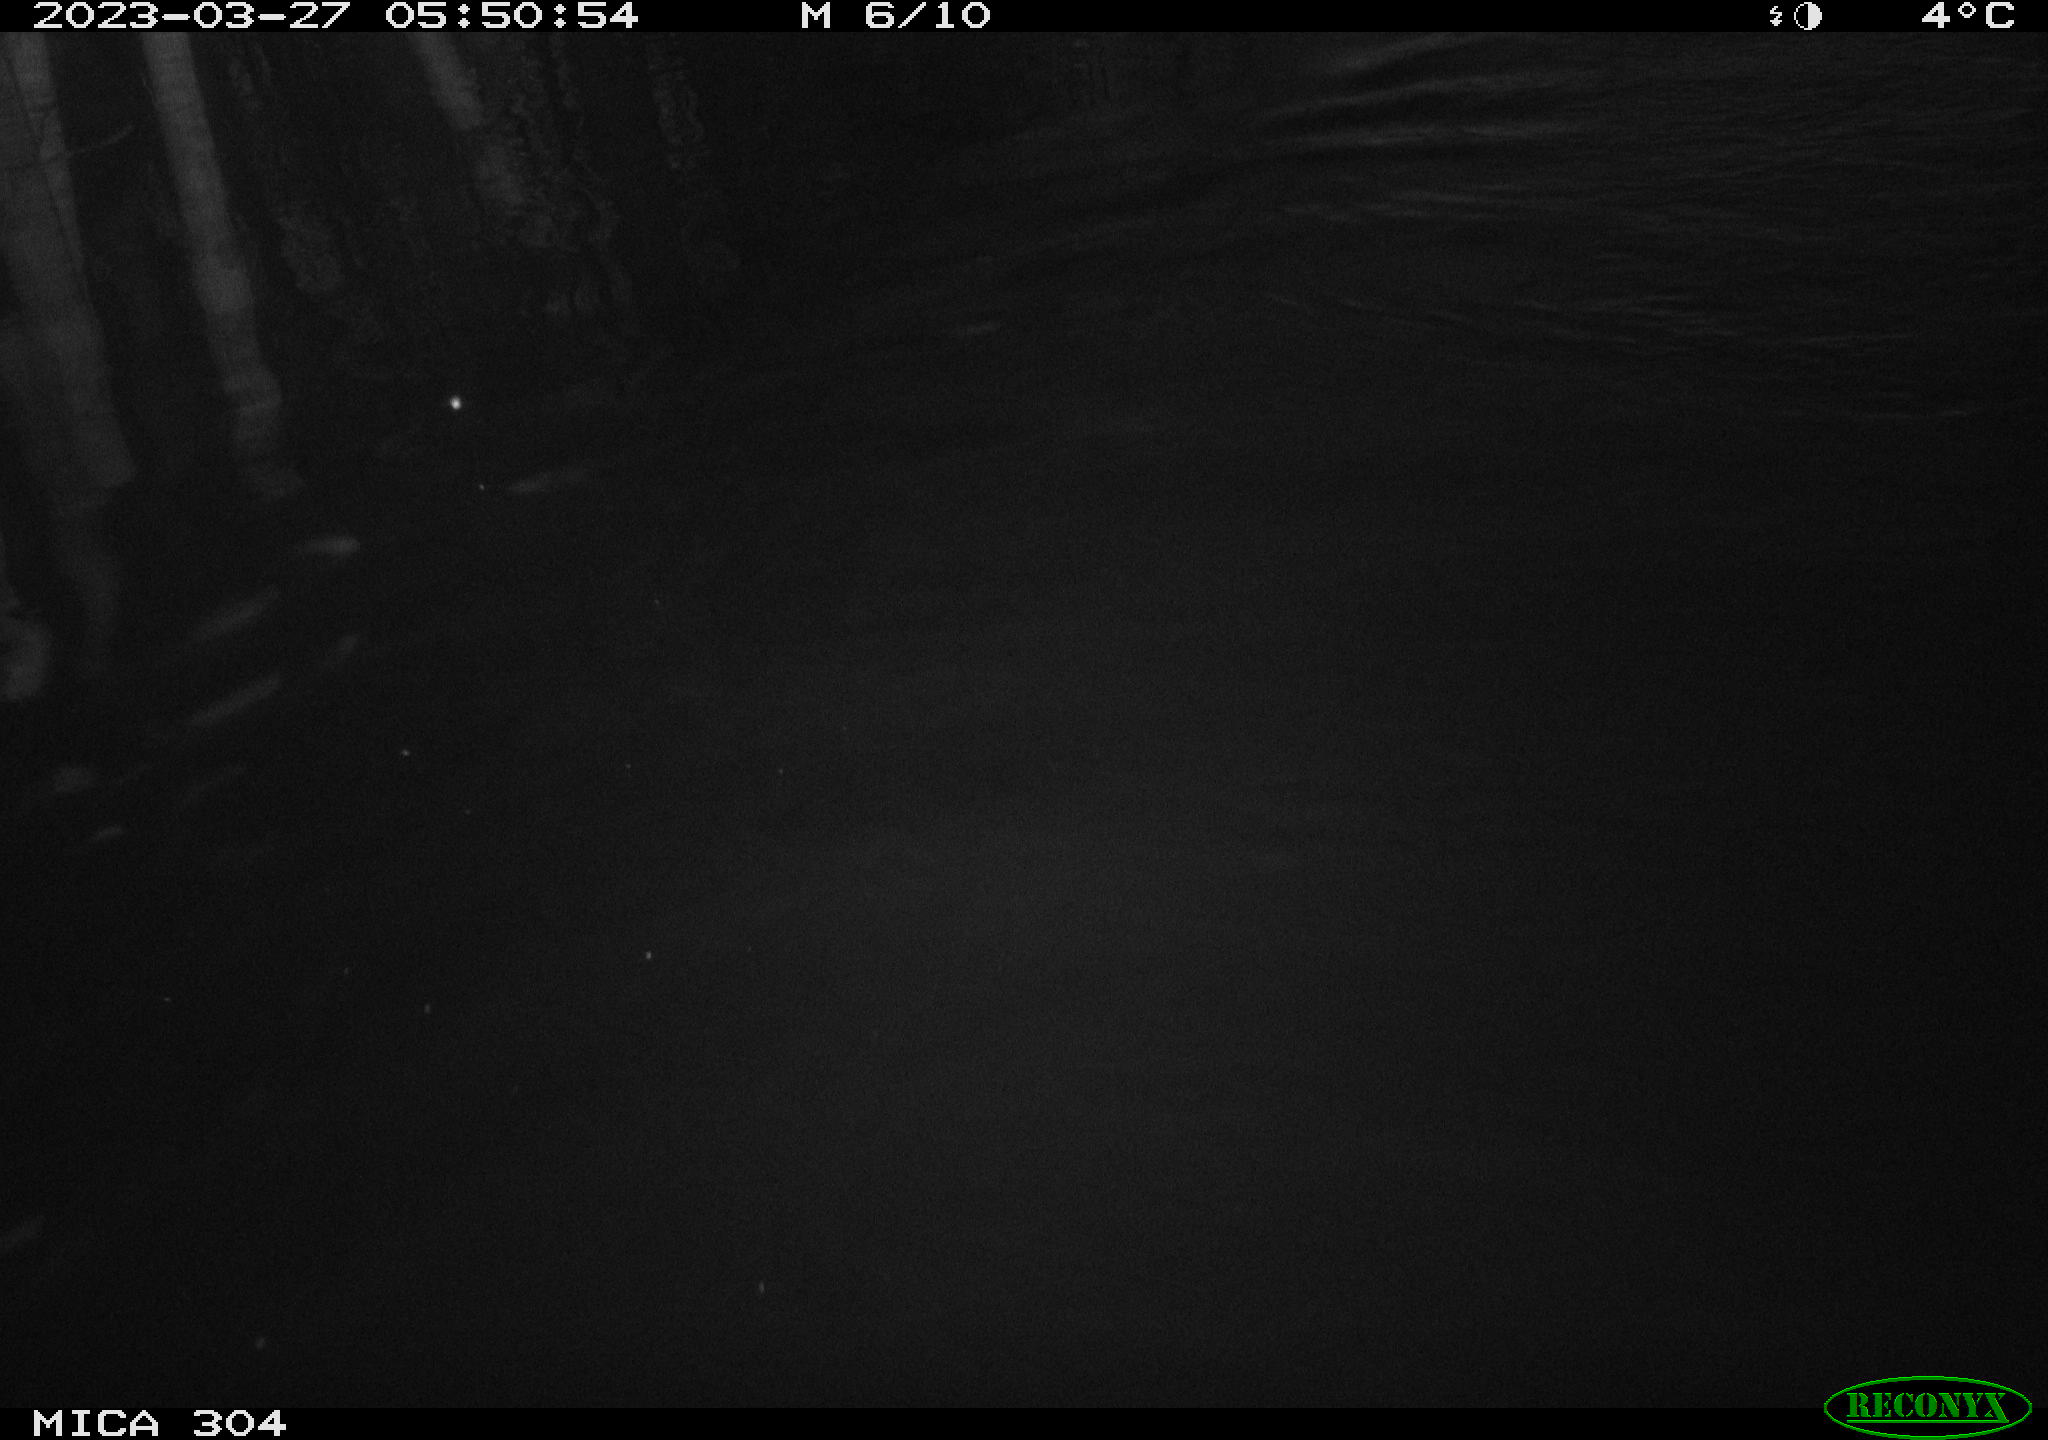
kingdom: Animalia
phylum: Chordata
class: Aves
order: Anseriformes
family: Anatidae
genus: Anas
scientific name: Anas
